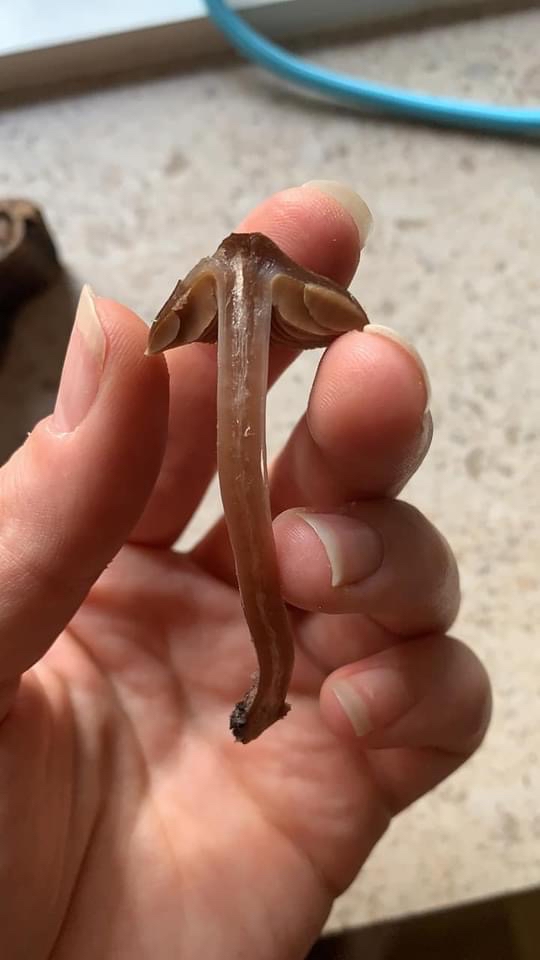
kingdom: Fungi
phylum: Basidiomycota
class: Agaricomycetes
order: Agaricales
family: Cortinariaceae
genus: Cortinarius
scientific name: Cortinarius
